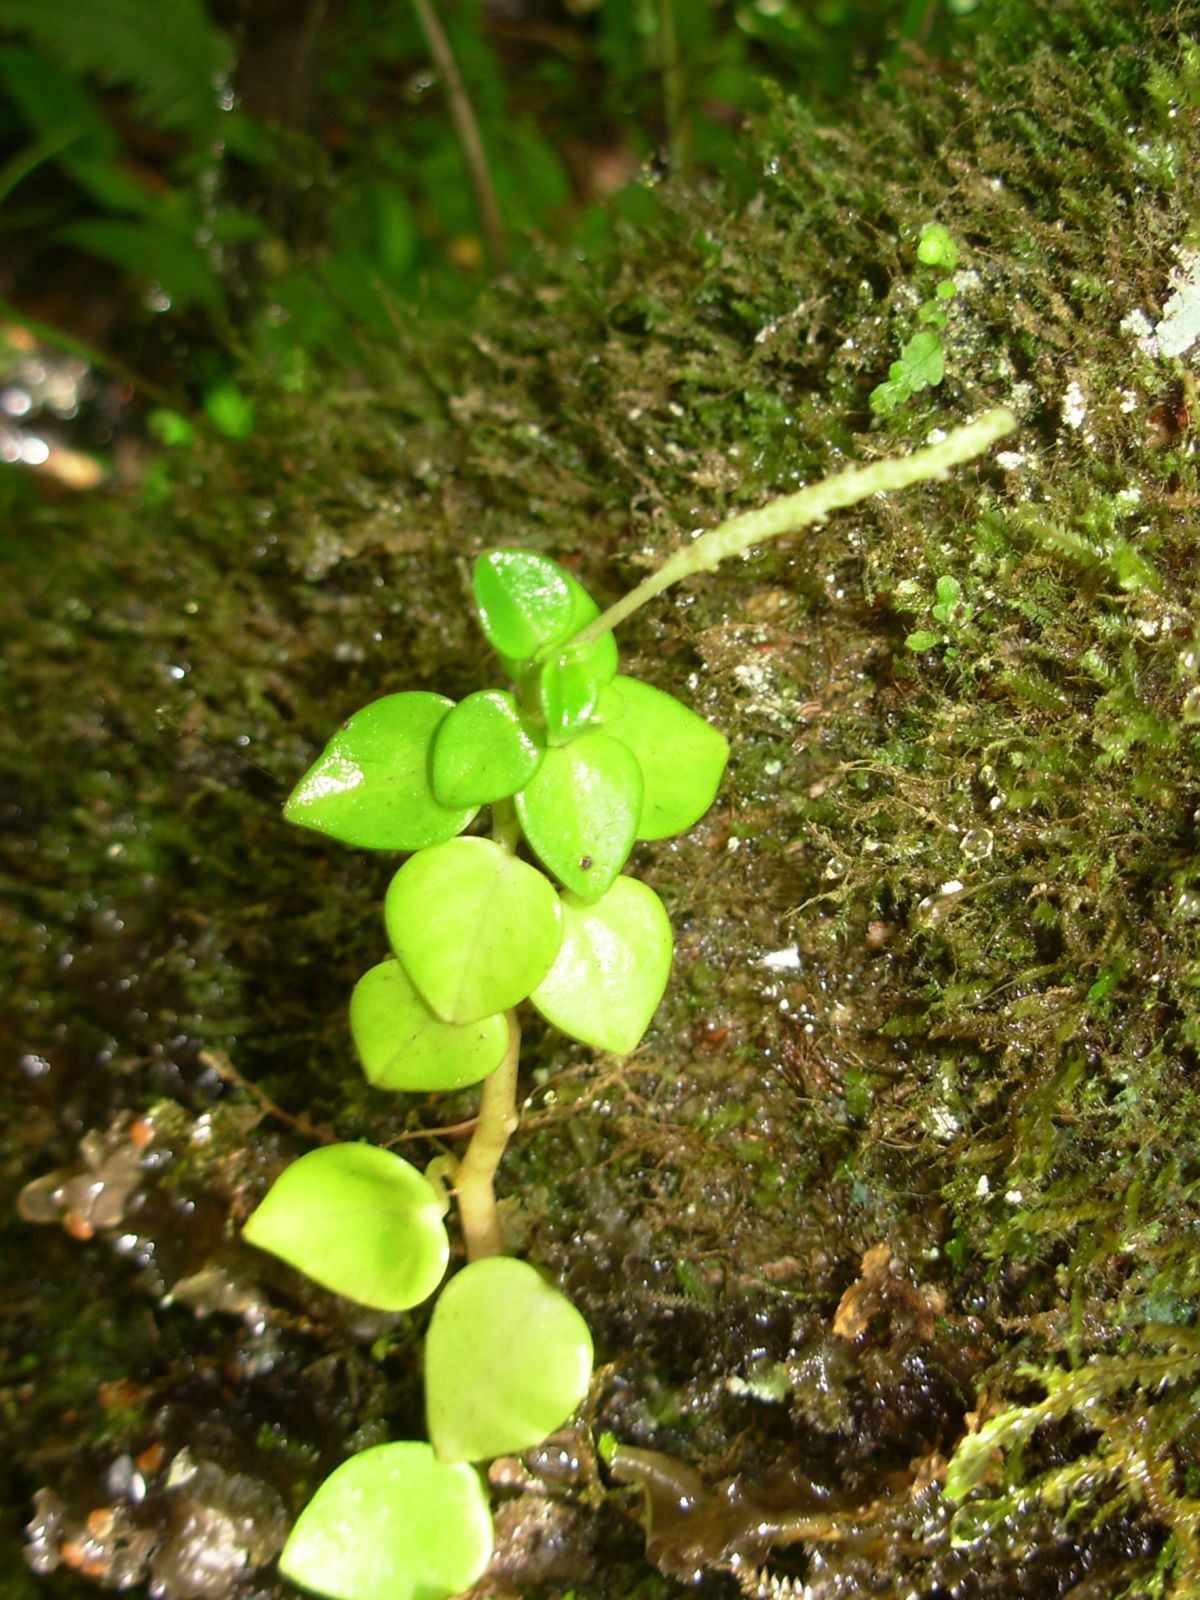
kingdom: Plantae
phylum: Tracheophyta
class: Magnoliopsida
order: Piperales
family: Piperaceae
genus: Peperomia
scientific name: Peperomia
